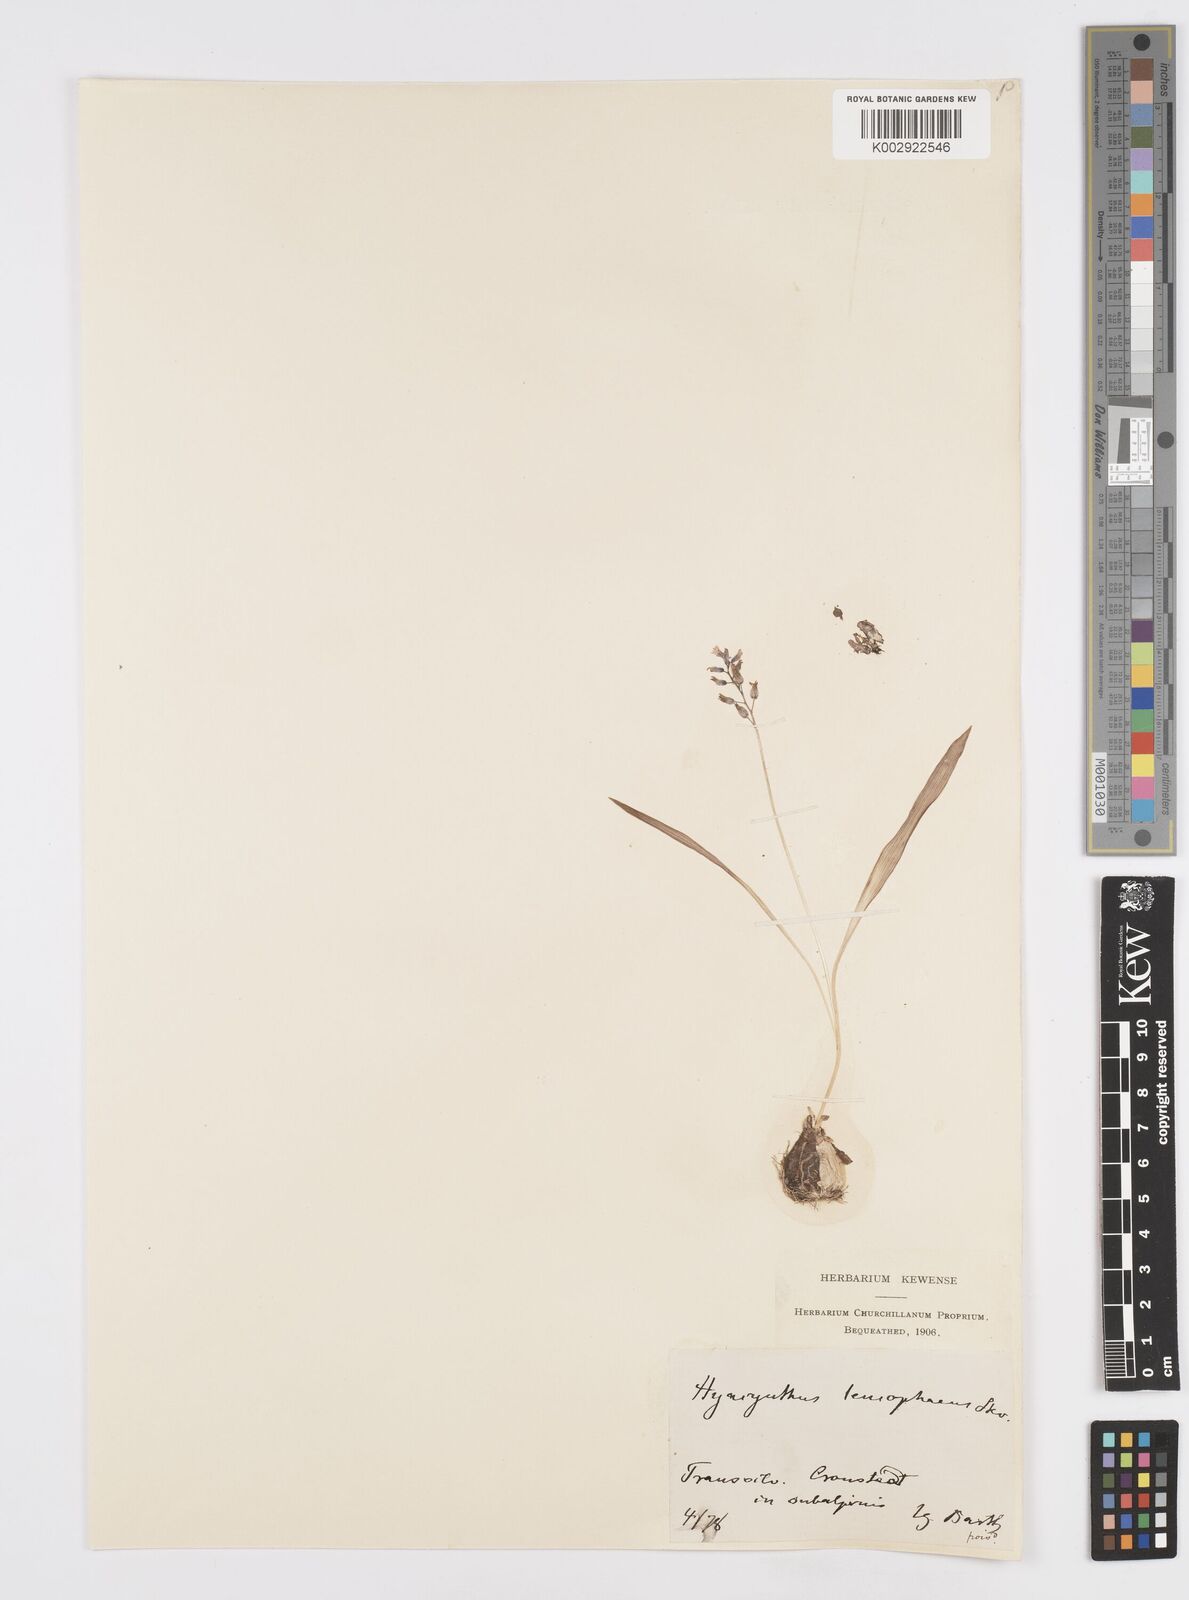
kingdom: Plantae
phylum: Tracheophyta
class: Liliopsida
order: Asparagales
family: Asparagaceae
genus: Hyacinthella
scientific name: Hyacinthella leucophaea
